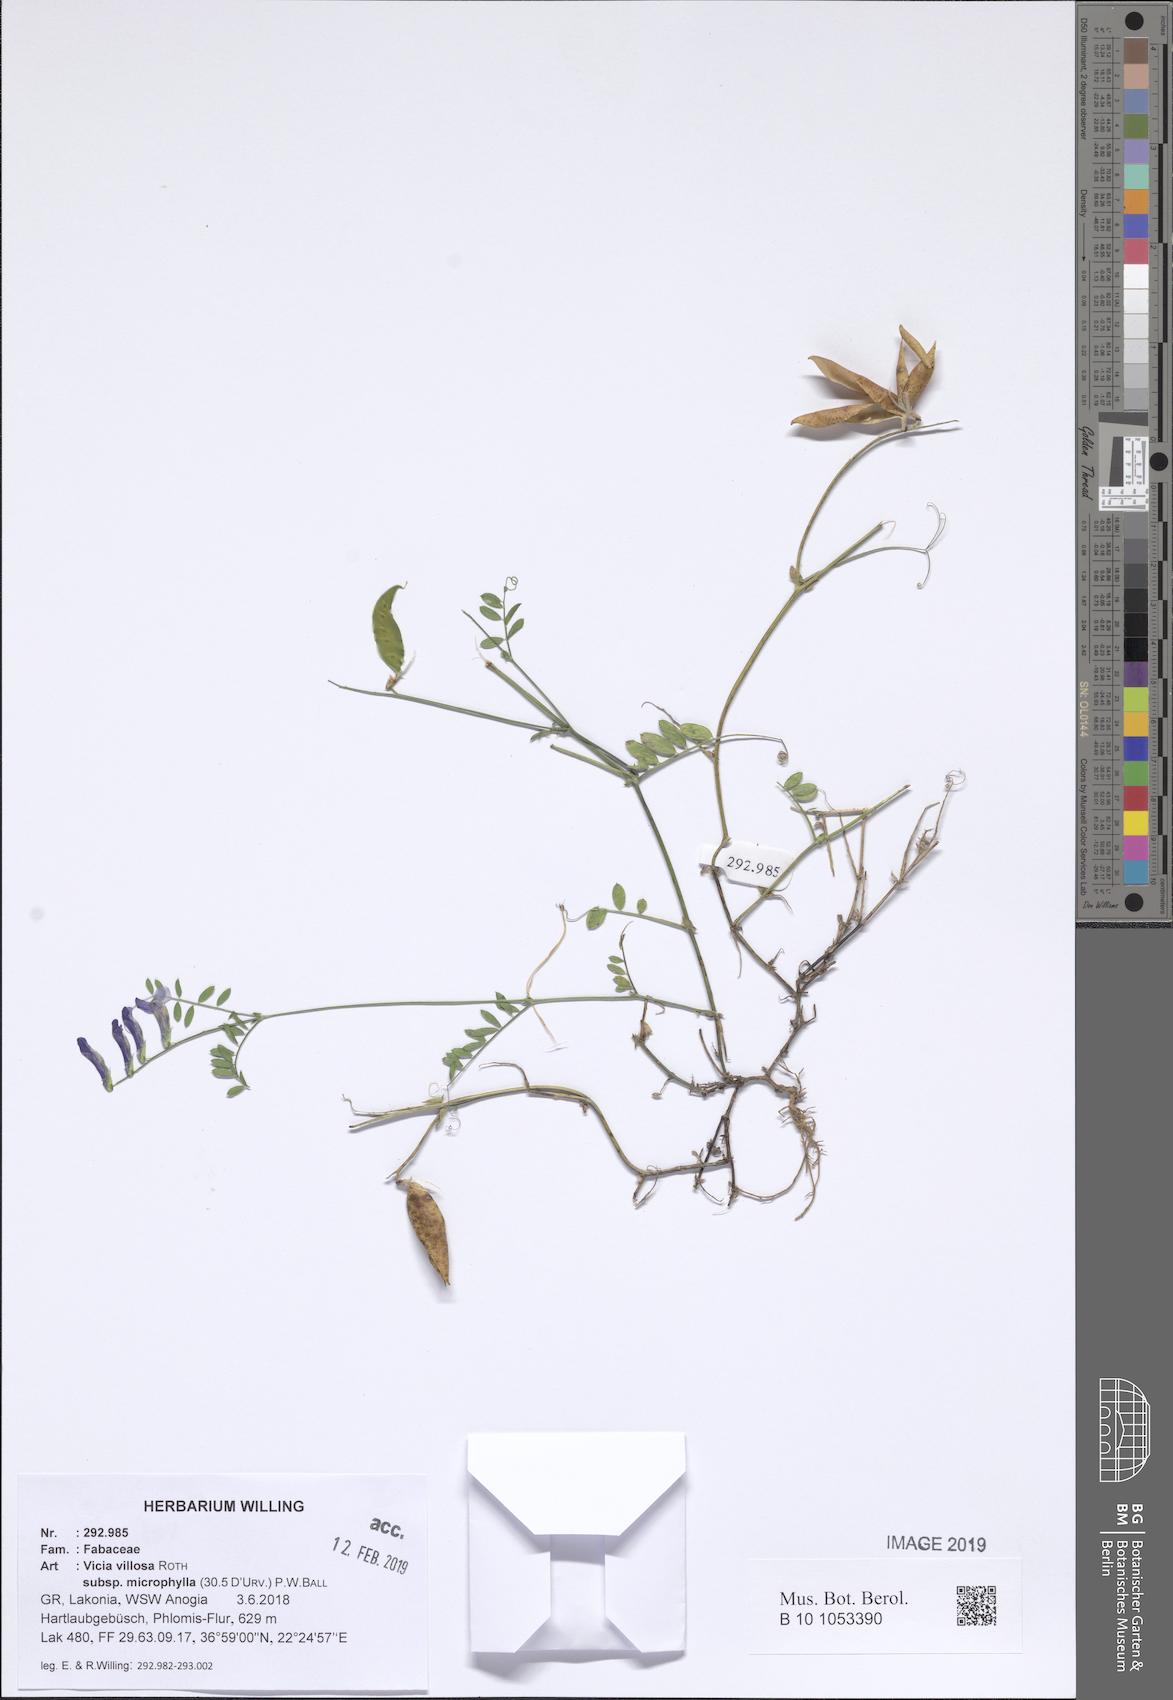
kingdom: Plantae
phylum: Tracheophyta
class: Magnoliopsida
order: Fabales
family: Fabaceae
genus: Vicia
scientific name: Vicia villosa
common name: Fodder vetch
